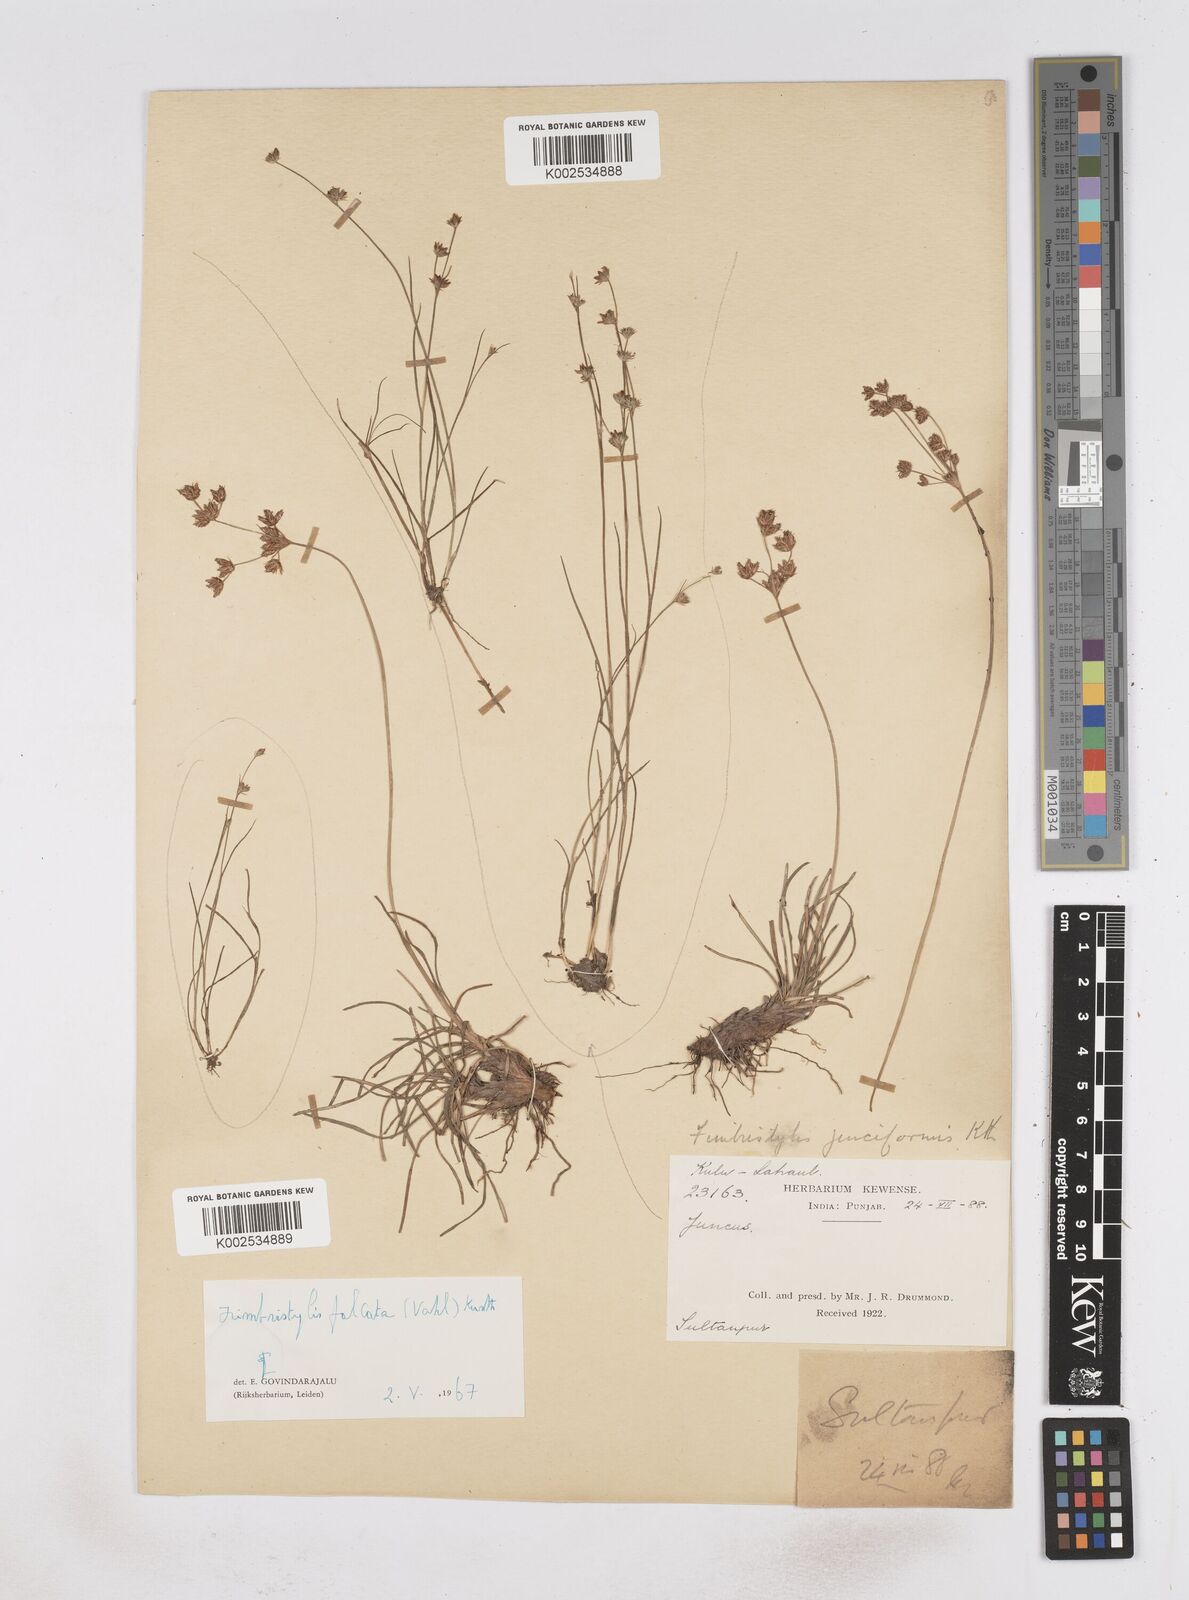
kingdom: Plantae
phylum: Tracheophyta
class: Liliopsida
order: Poales
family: Cyperaceae
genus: Fimbristylis
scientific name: Fimbristylis falcata
